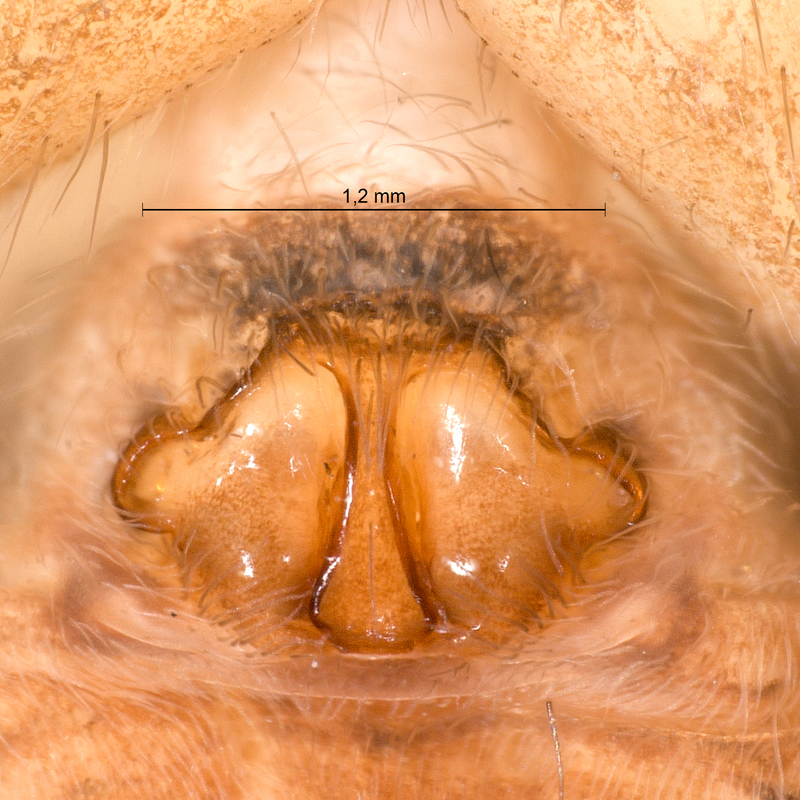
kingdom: Animalia
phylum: Arthropoda
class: Arachnida
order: Araneae
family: Lycosidae
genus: Pardosa
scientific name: Pardosa pullata
